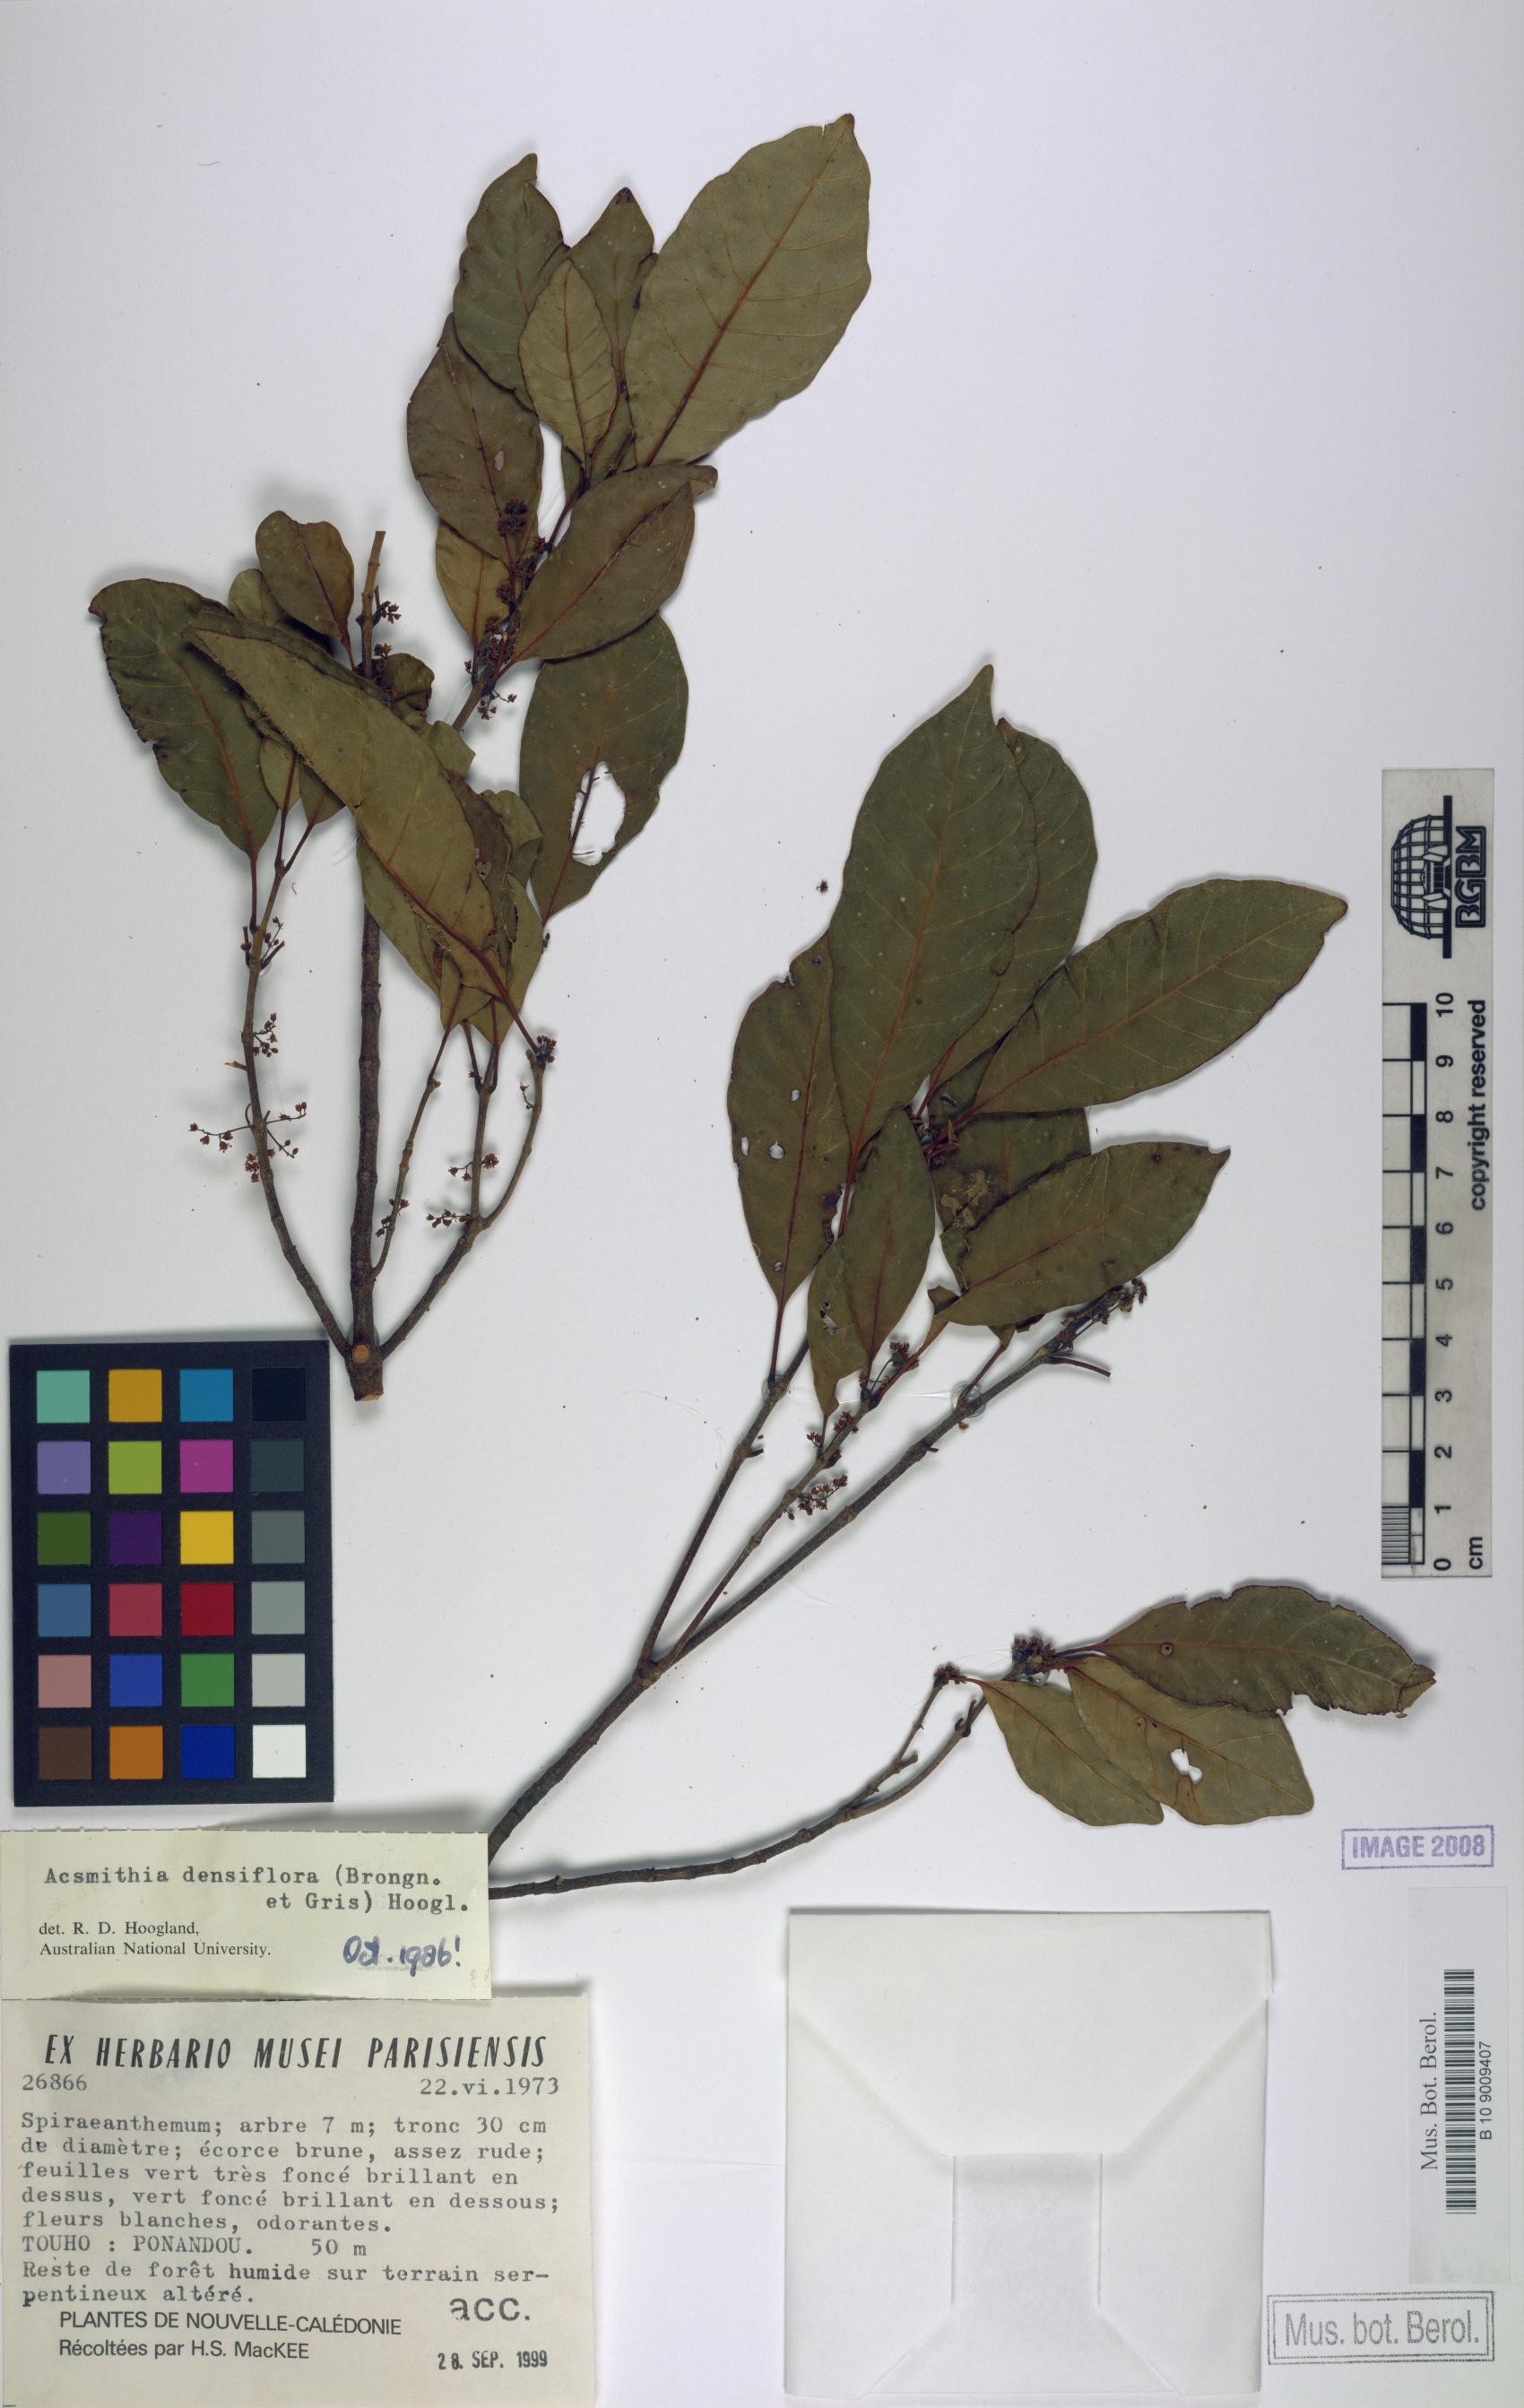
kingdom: Plantae
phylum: Tracheophyta
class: Magnoliopsida
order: Oxalidales
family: Cunoniaceae
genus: Spiraeanthemum
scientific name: Spiraeanthemum densiflorum
